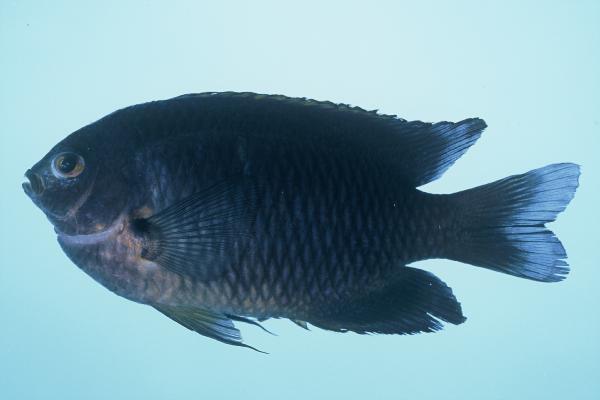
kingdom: Animalia
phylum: Chordata
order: Perciformes
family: Pomacentridae
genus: Pomacentrus
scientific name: Pomacentrus rodriguesensis
